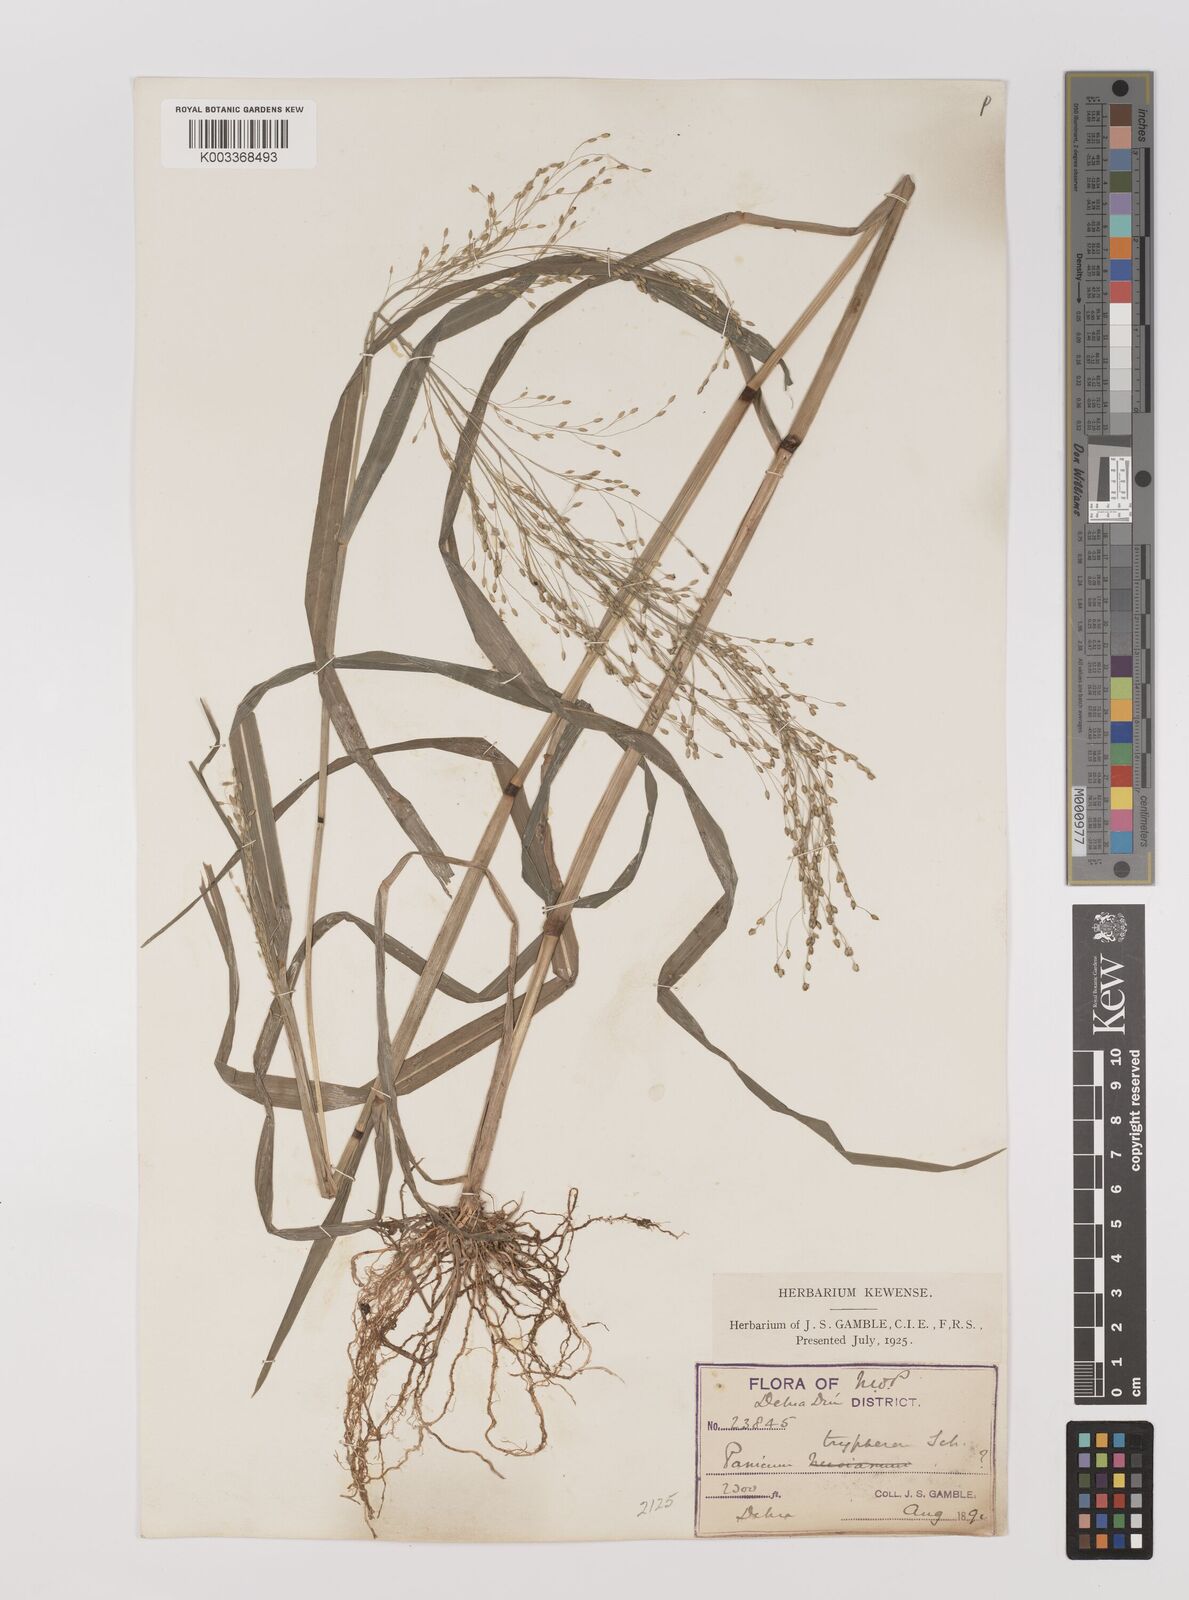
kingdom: Plantae
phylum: Tracheophyta
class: Liliopsida
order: Poales
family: Poaceae
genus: Panicum
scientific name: Panicum sumatrense
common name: Little millet
